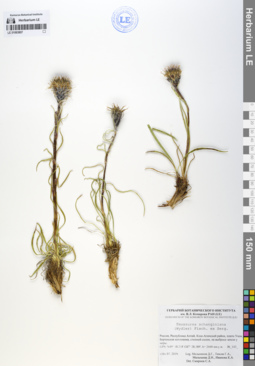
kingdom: Plantae
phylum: Tracheophyta
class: Magnoliopsida
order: Asterales
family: Asteraceae
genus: Saussurea
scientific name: Saussurea schanginiana
